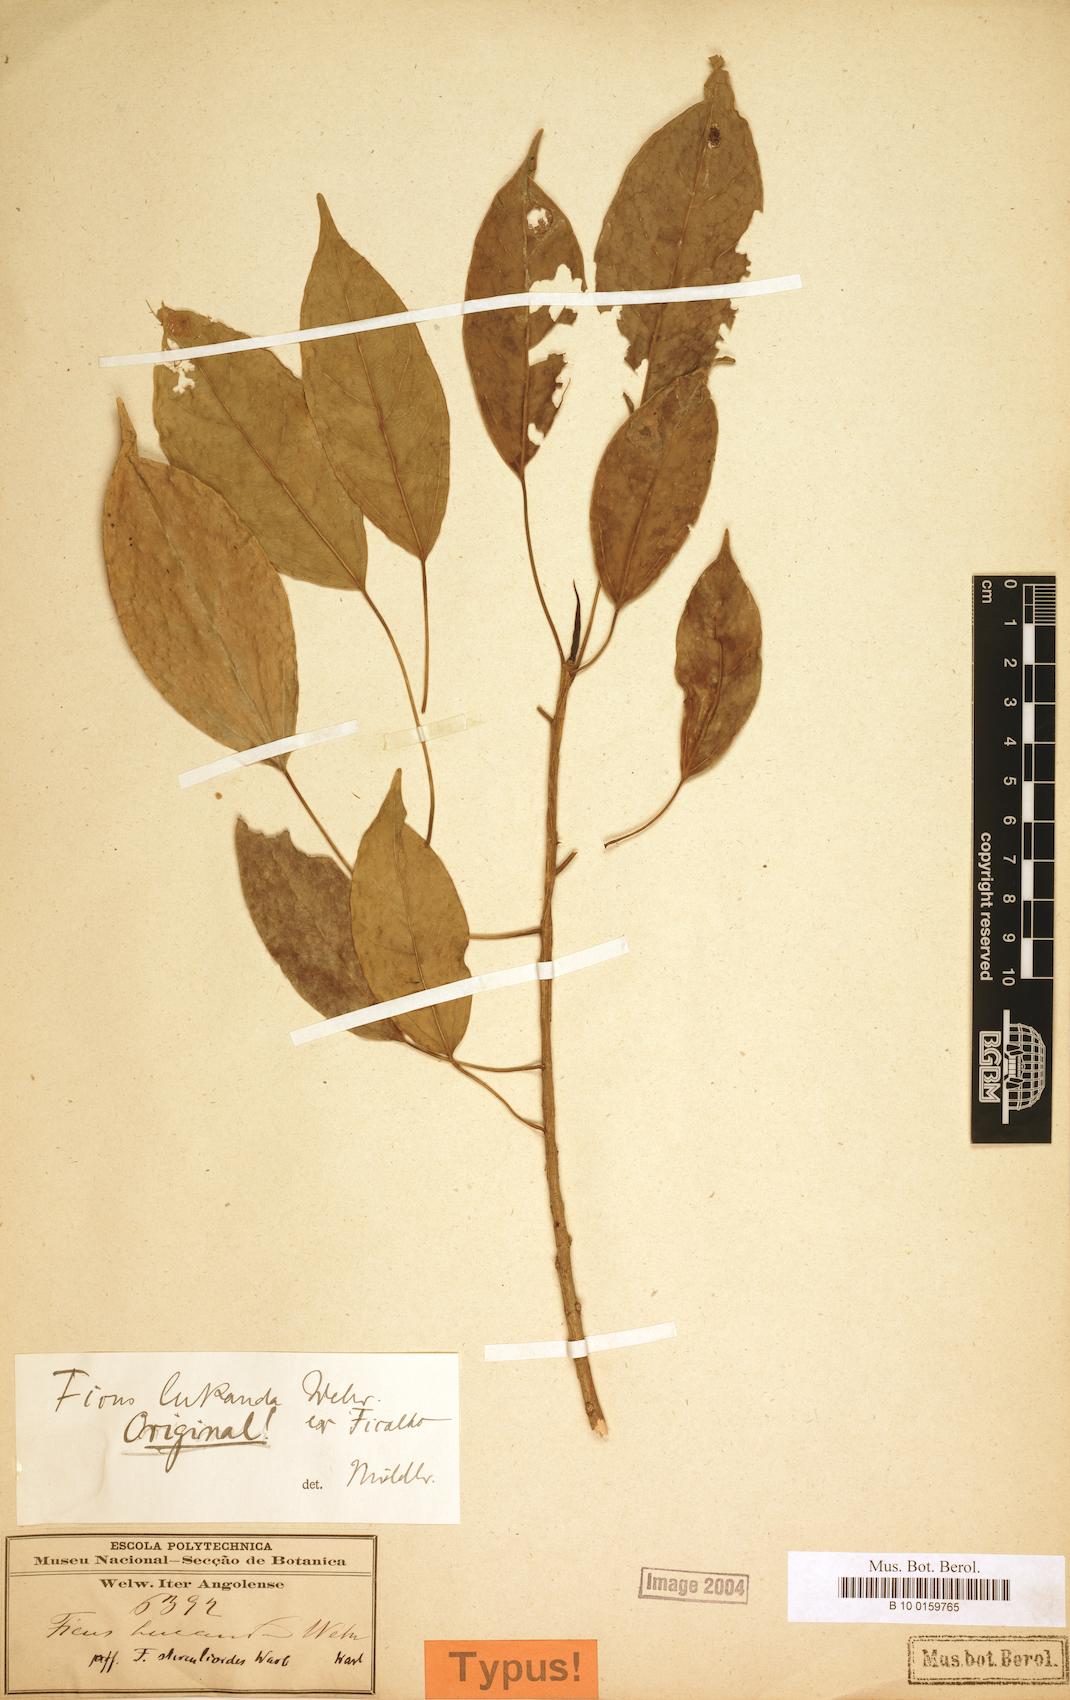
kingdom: Plantae
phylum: Tracheophyta
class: Magnoliopsida
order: Rosales
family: Moraceae
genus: Ficus
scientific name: Ficus ottoniifolia
